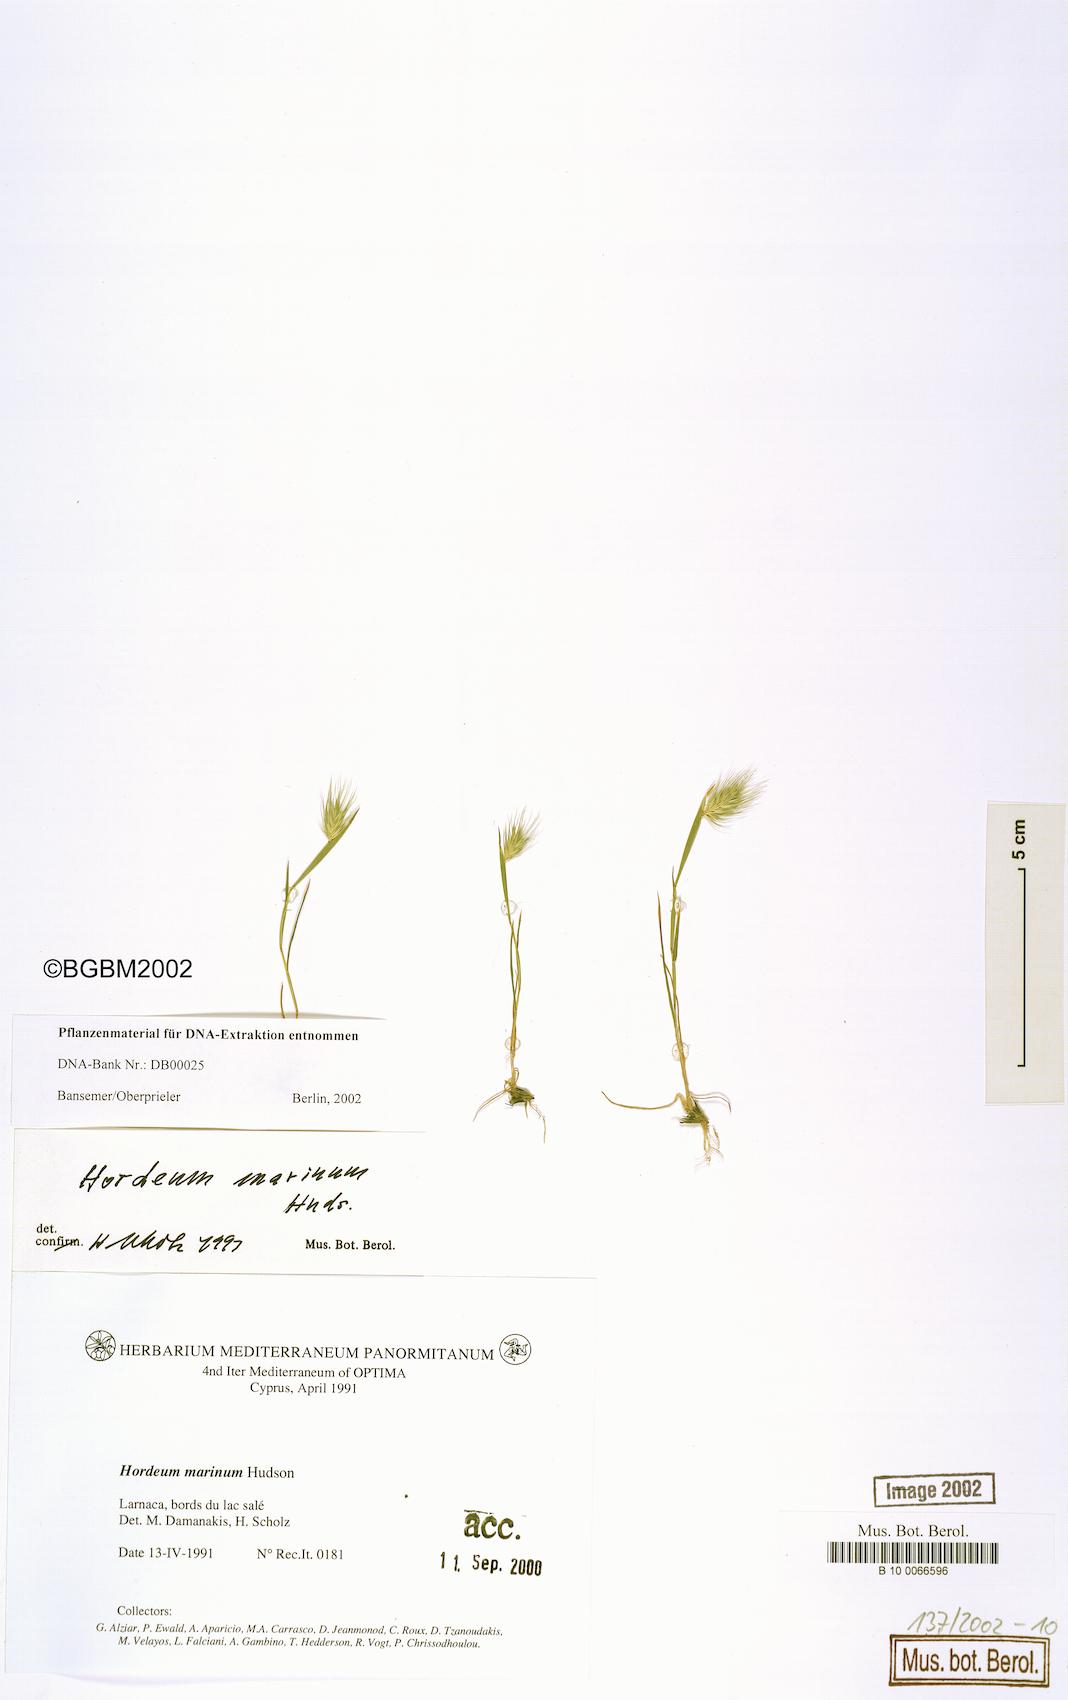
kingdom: Plantae
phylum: Tracheophyta
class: Liliopsida
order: Poales
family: Poaceae
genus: Hordeum
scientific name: Hordeum marinum
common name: Sea barley
